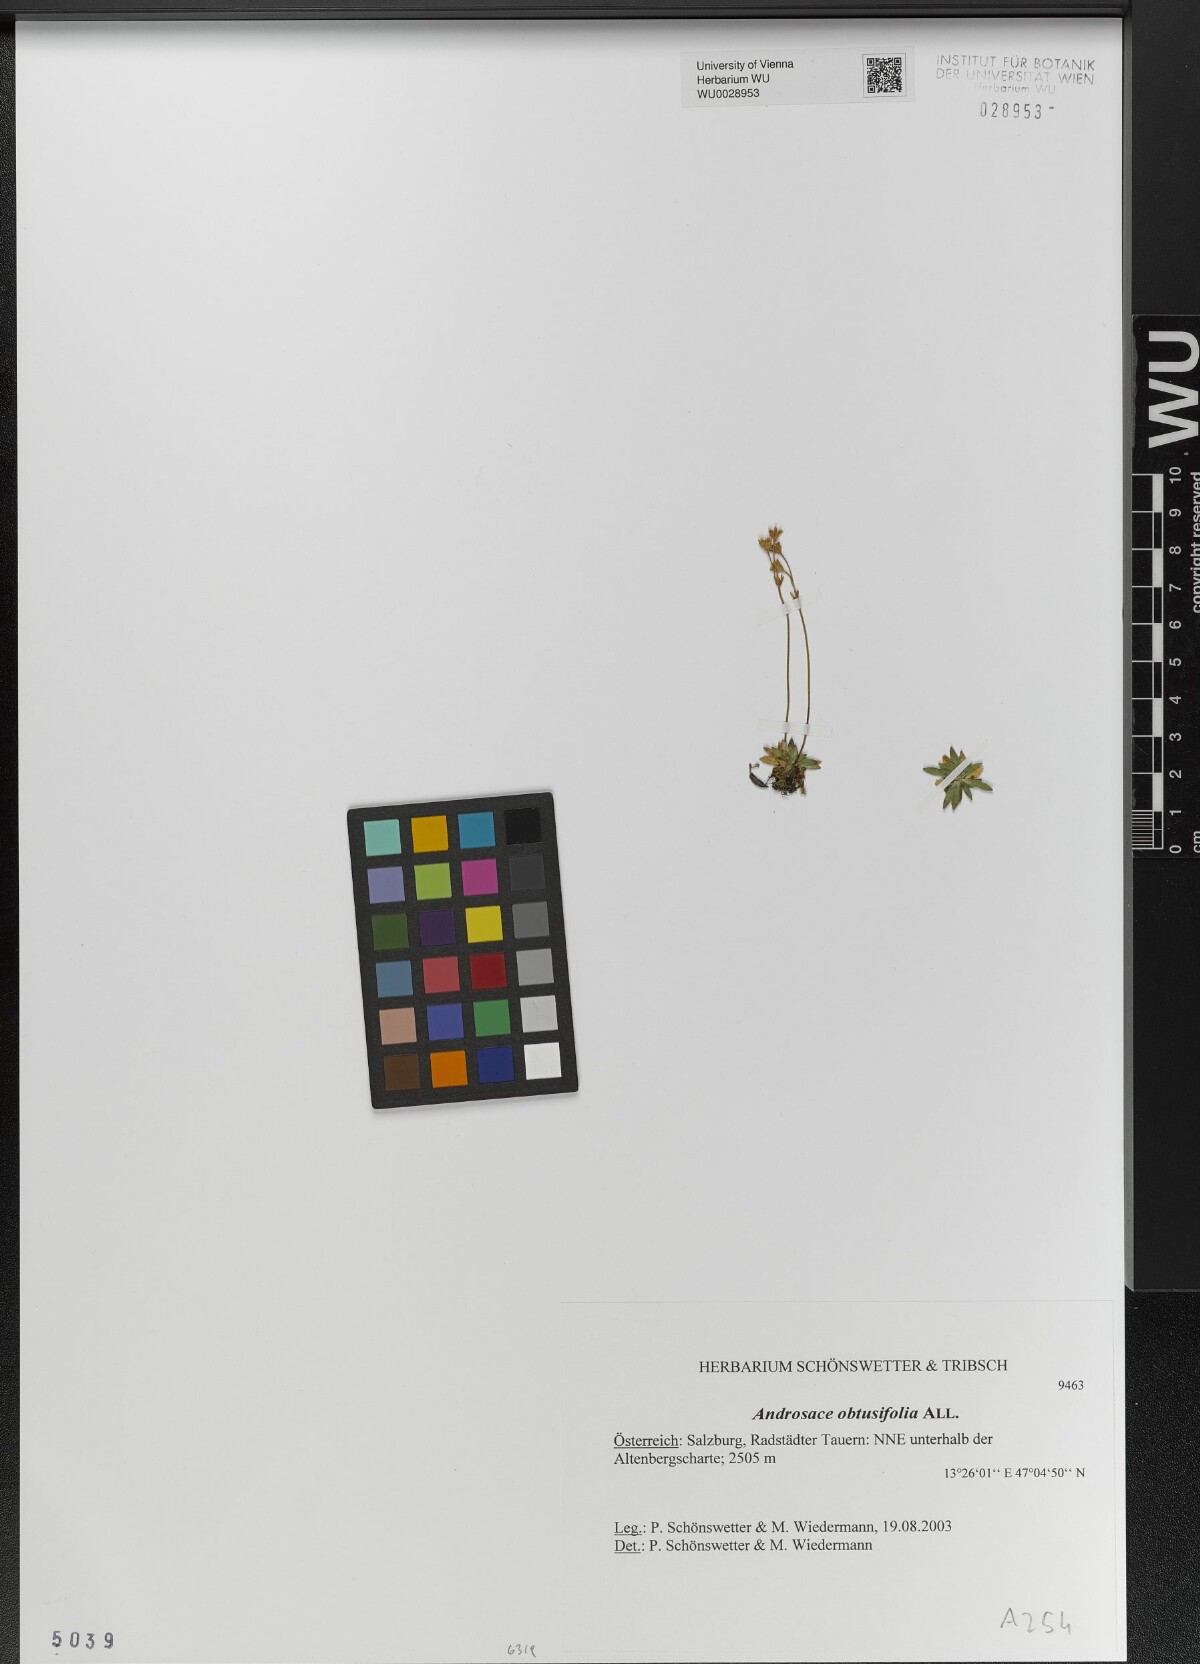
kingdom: Plantae
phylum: Tracheophyta
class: Magnoliopsida
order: Ericales
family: Primulaceae
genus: Androsace
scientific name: Androsace obtusifolia
